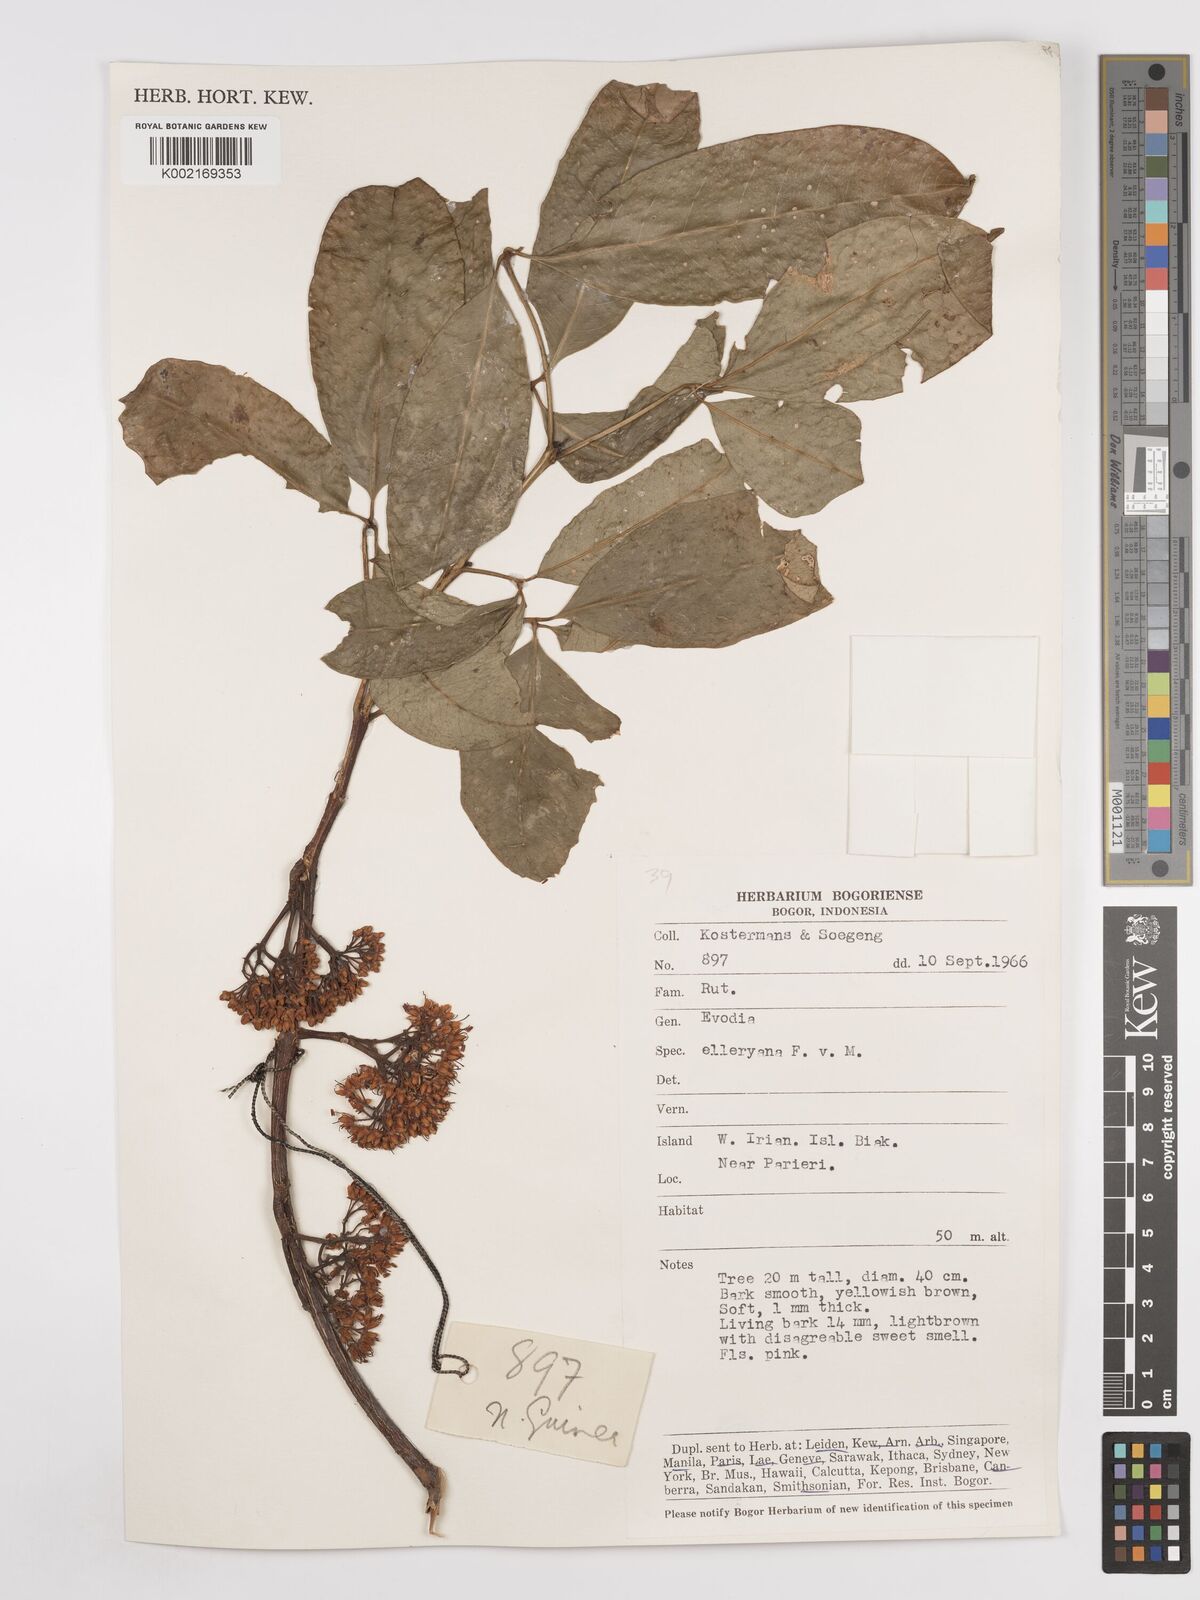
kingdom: Plantae
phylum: Tracheophyta
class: Magnoliopsida
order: Sapindales
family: Rutaceae
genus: Melicope
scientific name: Melicope elleryana
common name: Pink euodia
